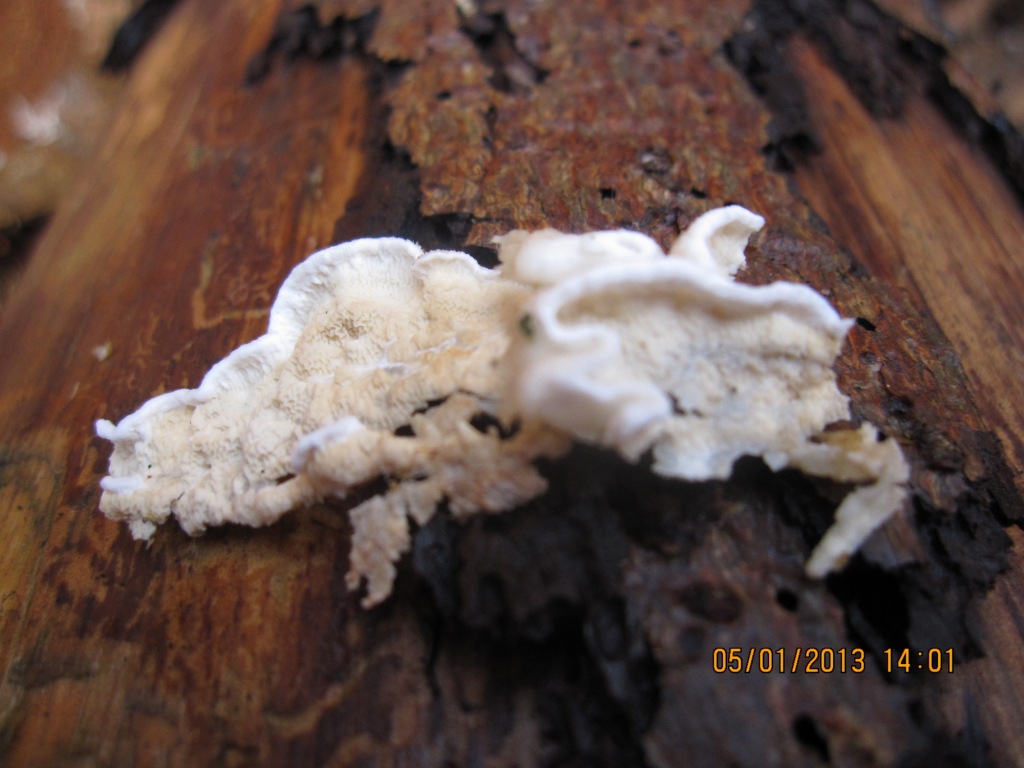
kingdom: Fungi
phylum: Basidiomycota
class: Agaricomycetes
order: Polyporales
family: Irpicaceae
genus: Byssomerulius
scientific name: Byssomerulius corium
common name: læder-åresvamp
